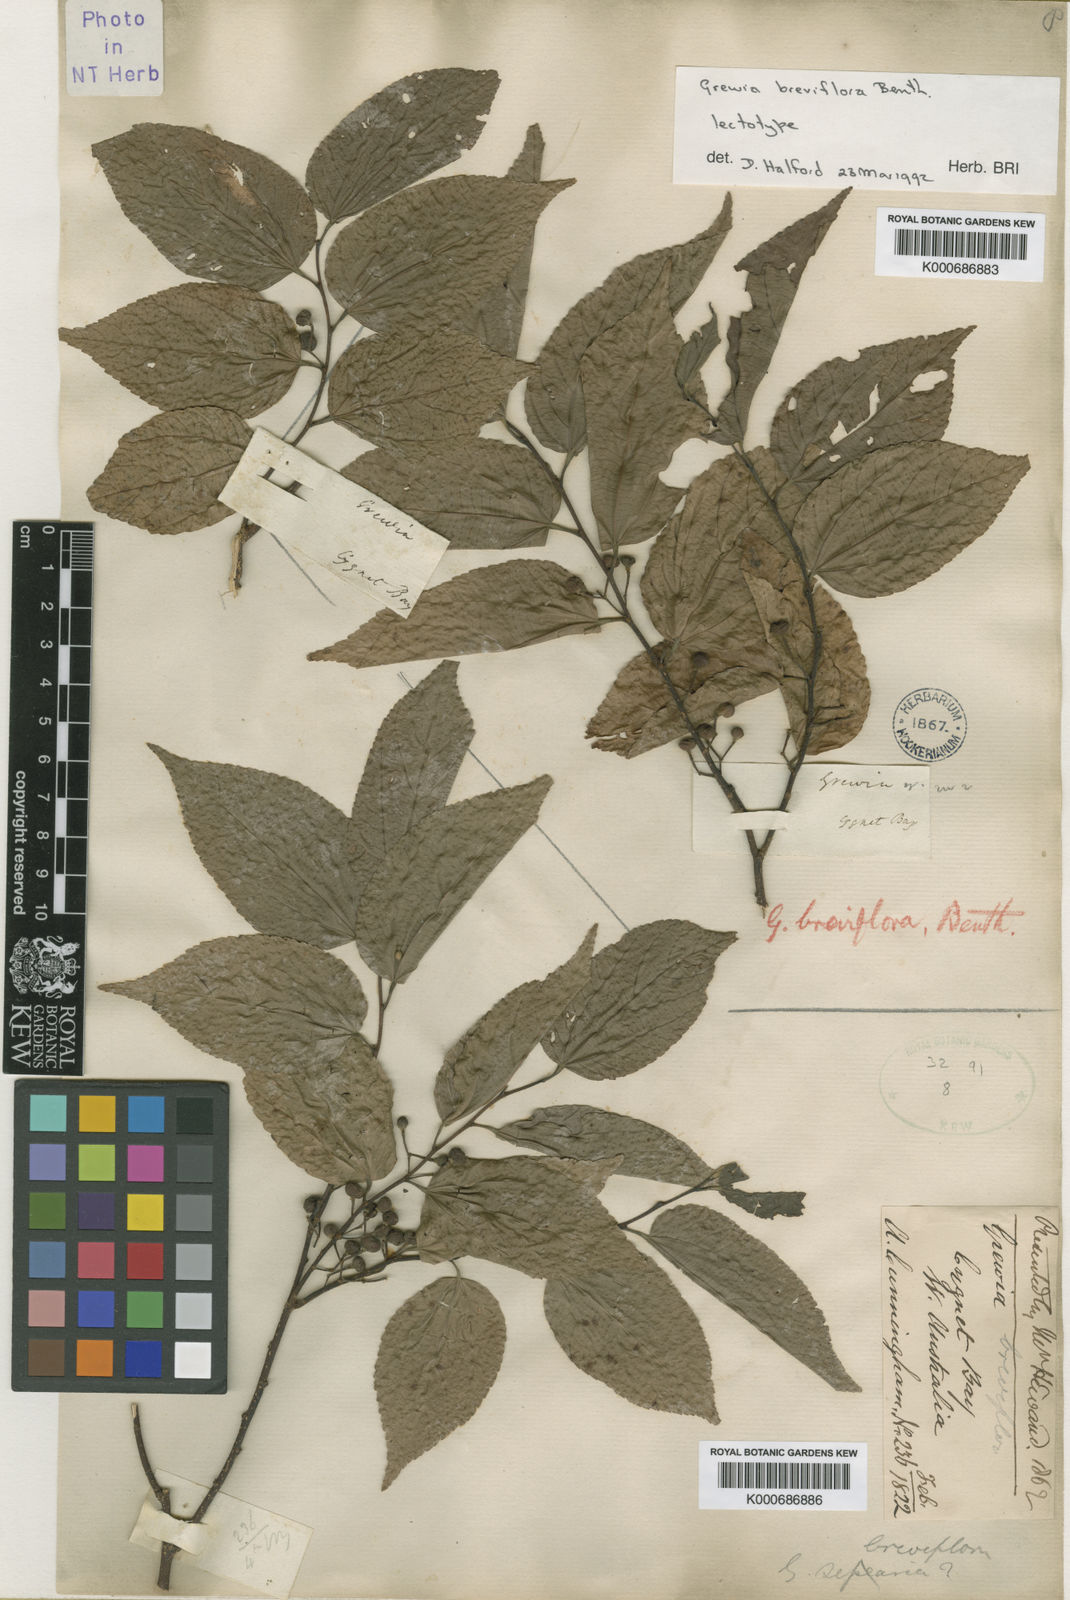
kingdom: Plantae
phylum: Tracheophyta
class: Magnoliopsida
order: Malvales
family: Malvaceae
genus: Grewia
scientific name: Grewia breviflora
